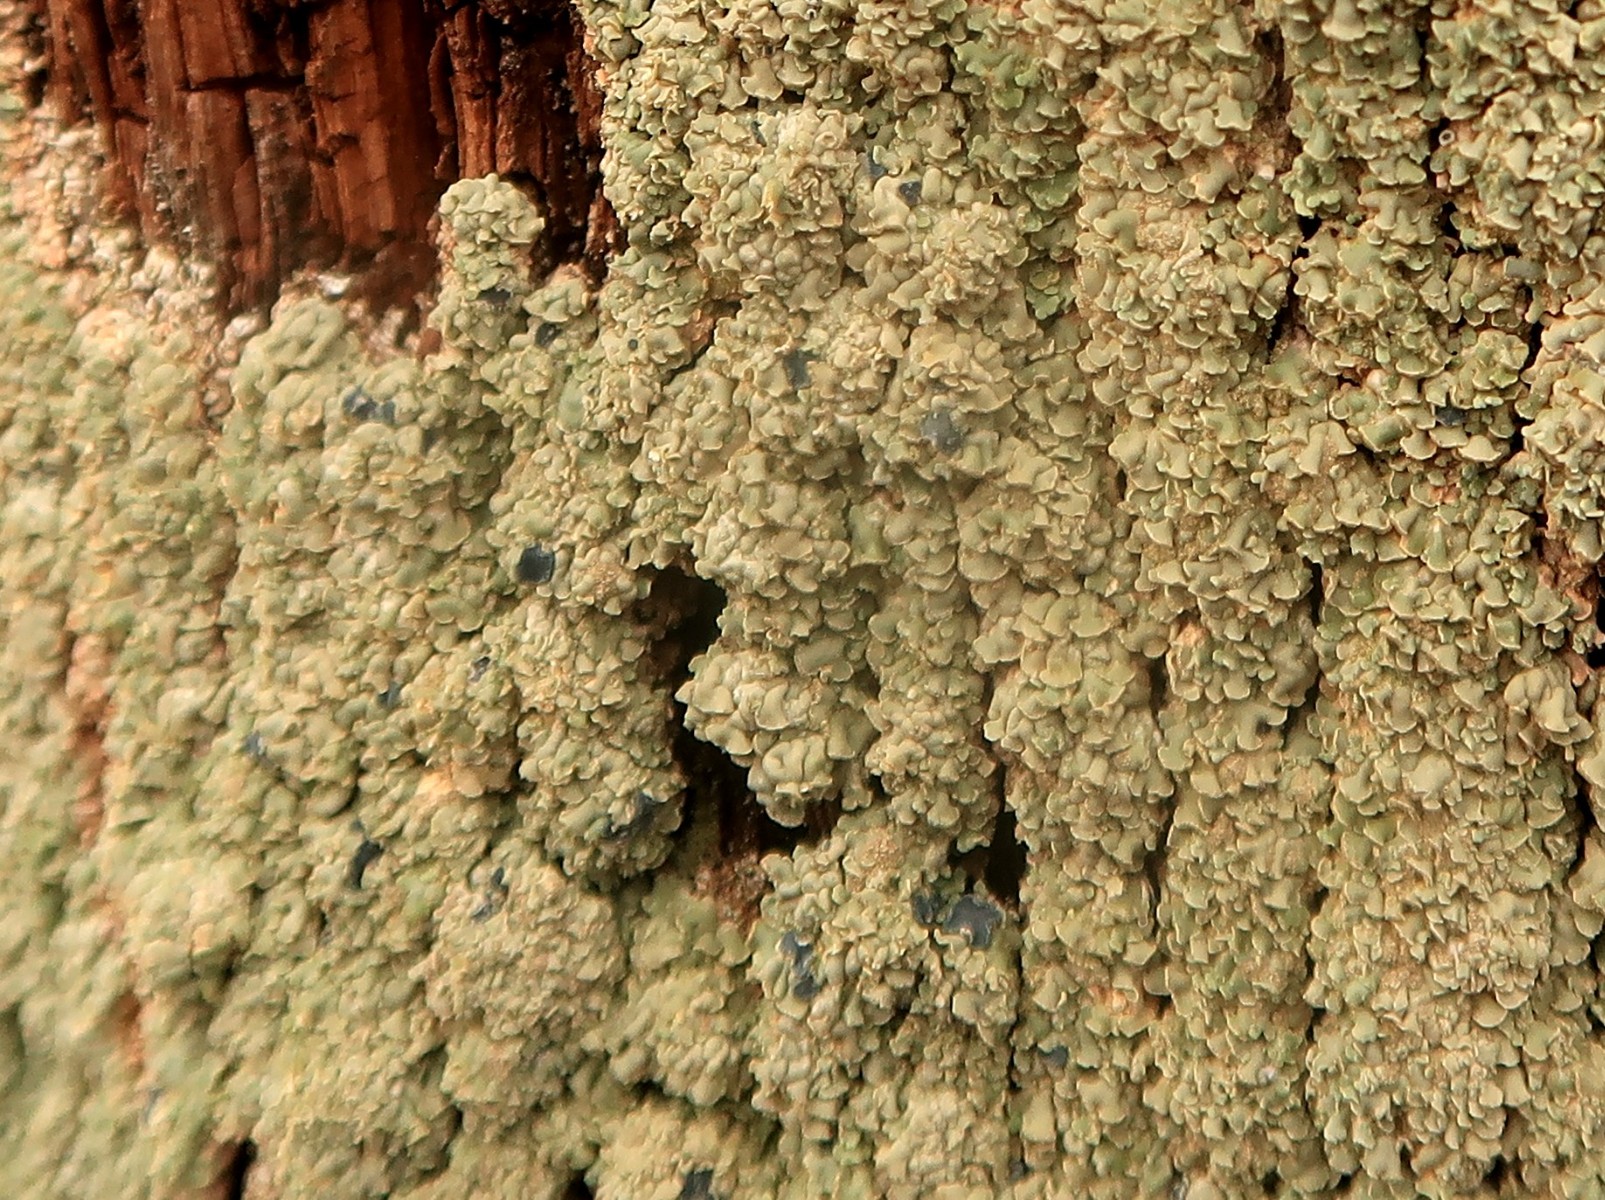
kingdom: Fungi
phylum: Ascomycota
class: Lecanoromycetes
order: Umbilicariales
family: Ophioparmaceae
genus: Hypocenomyce
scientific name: Hypocenomyce scalaris
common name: småskællet muslinglav
